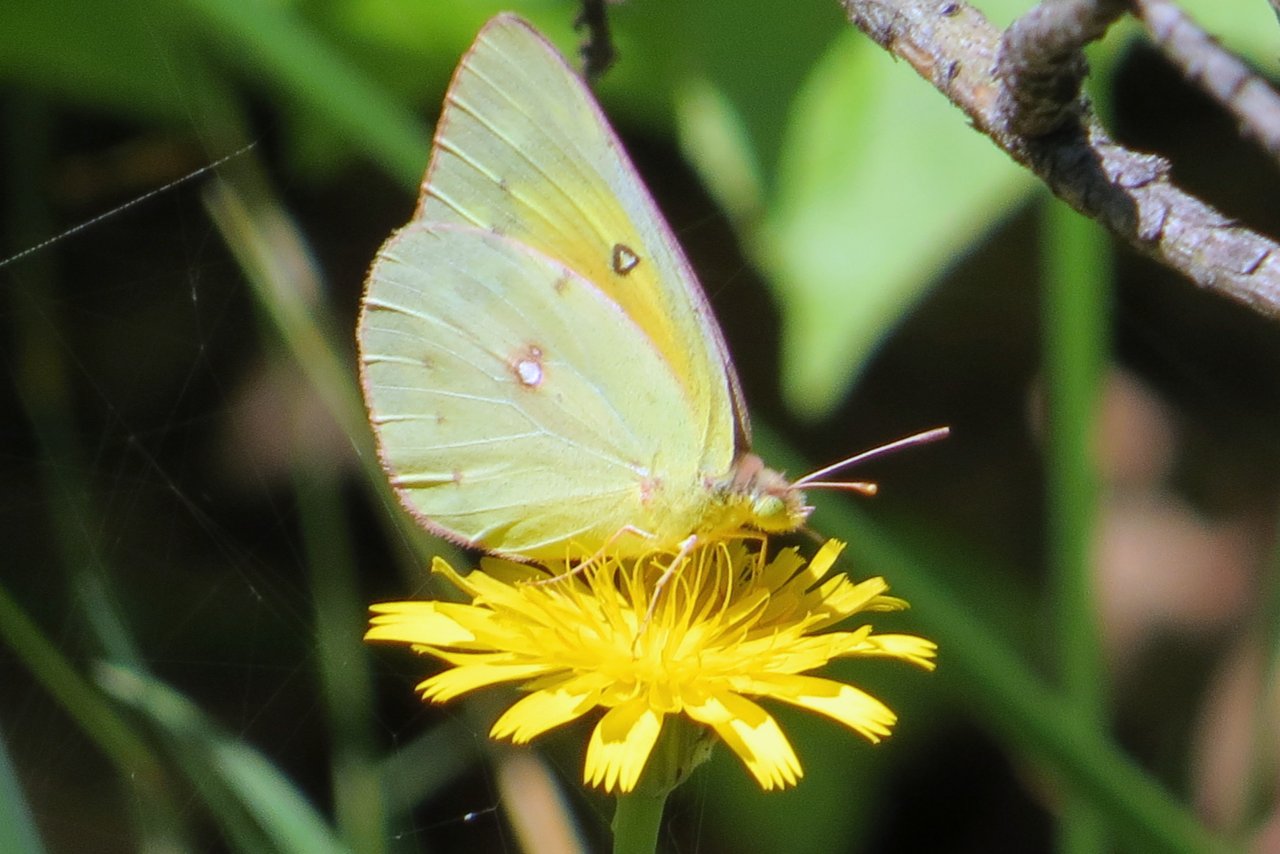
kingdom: Animalia
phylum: Arthropoda
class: Insecta
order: Lepidoptera
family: Pieridae
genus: Colias
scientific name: Colias eurytheme
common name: Orange Sulphur
